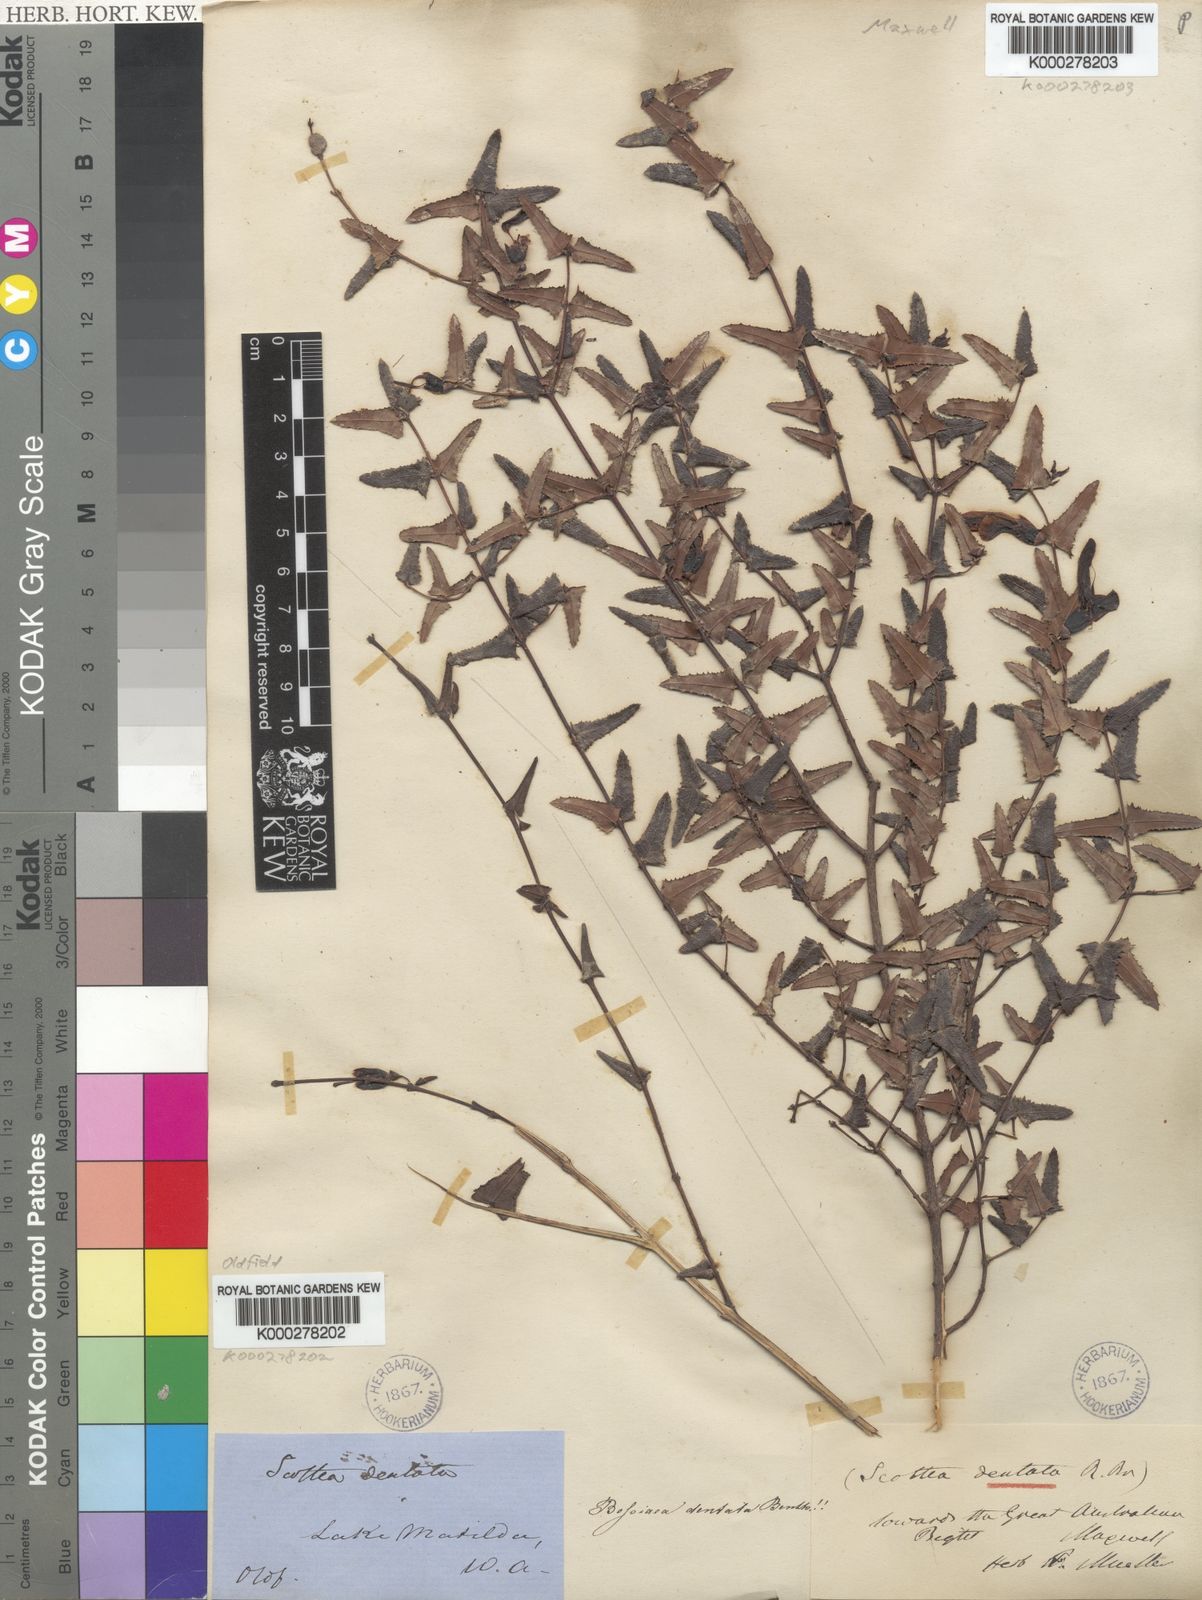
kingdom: Plantae
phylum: Tracheophyta
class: Magnoliopsida
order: Fabales
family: Fabaceae
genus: Bossiaea
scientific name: Bossiaea dentata
